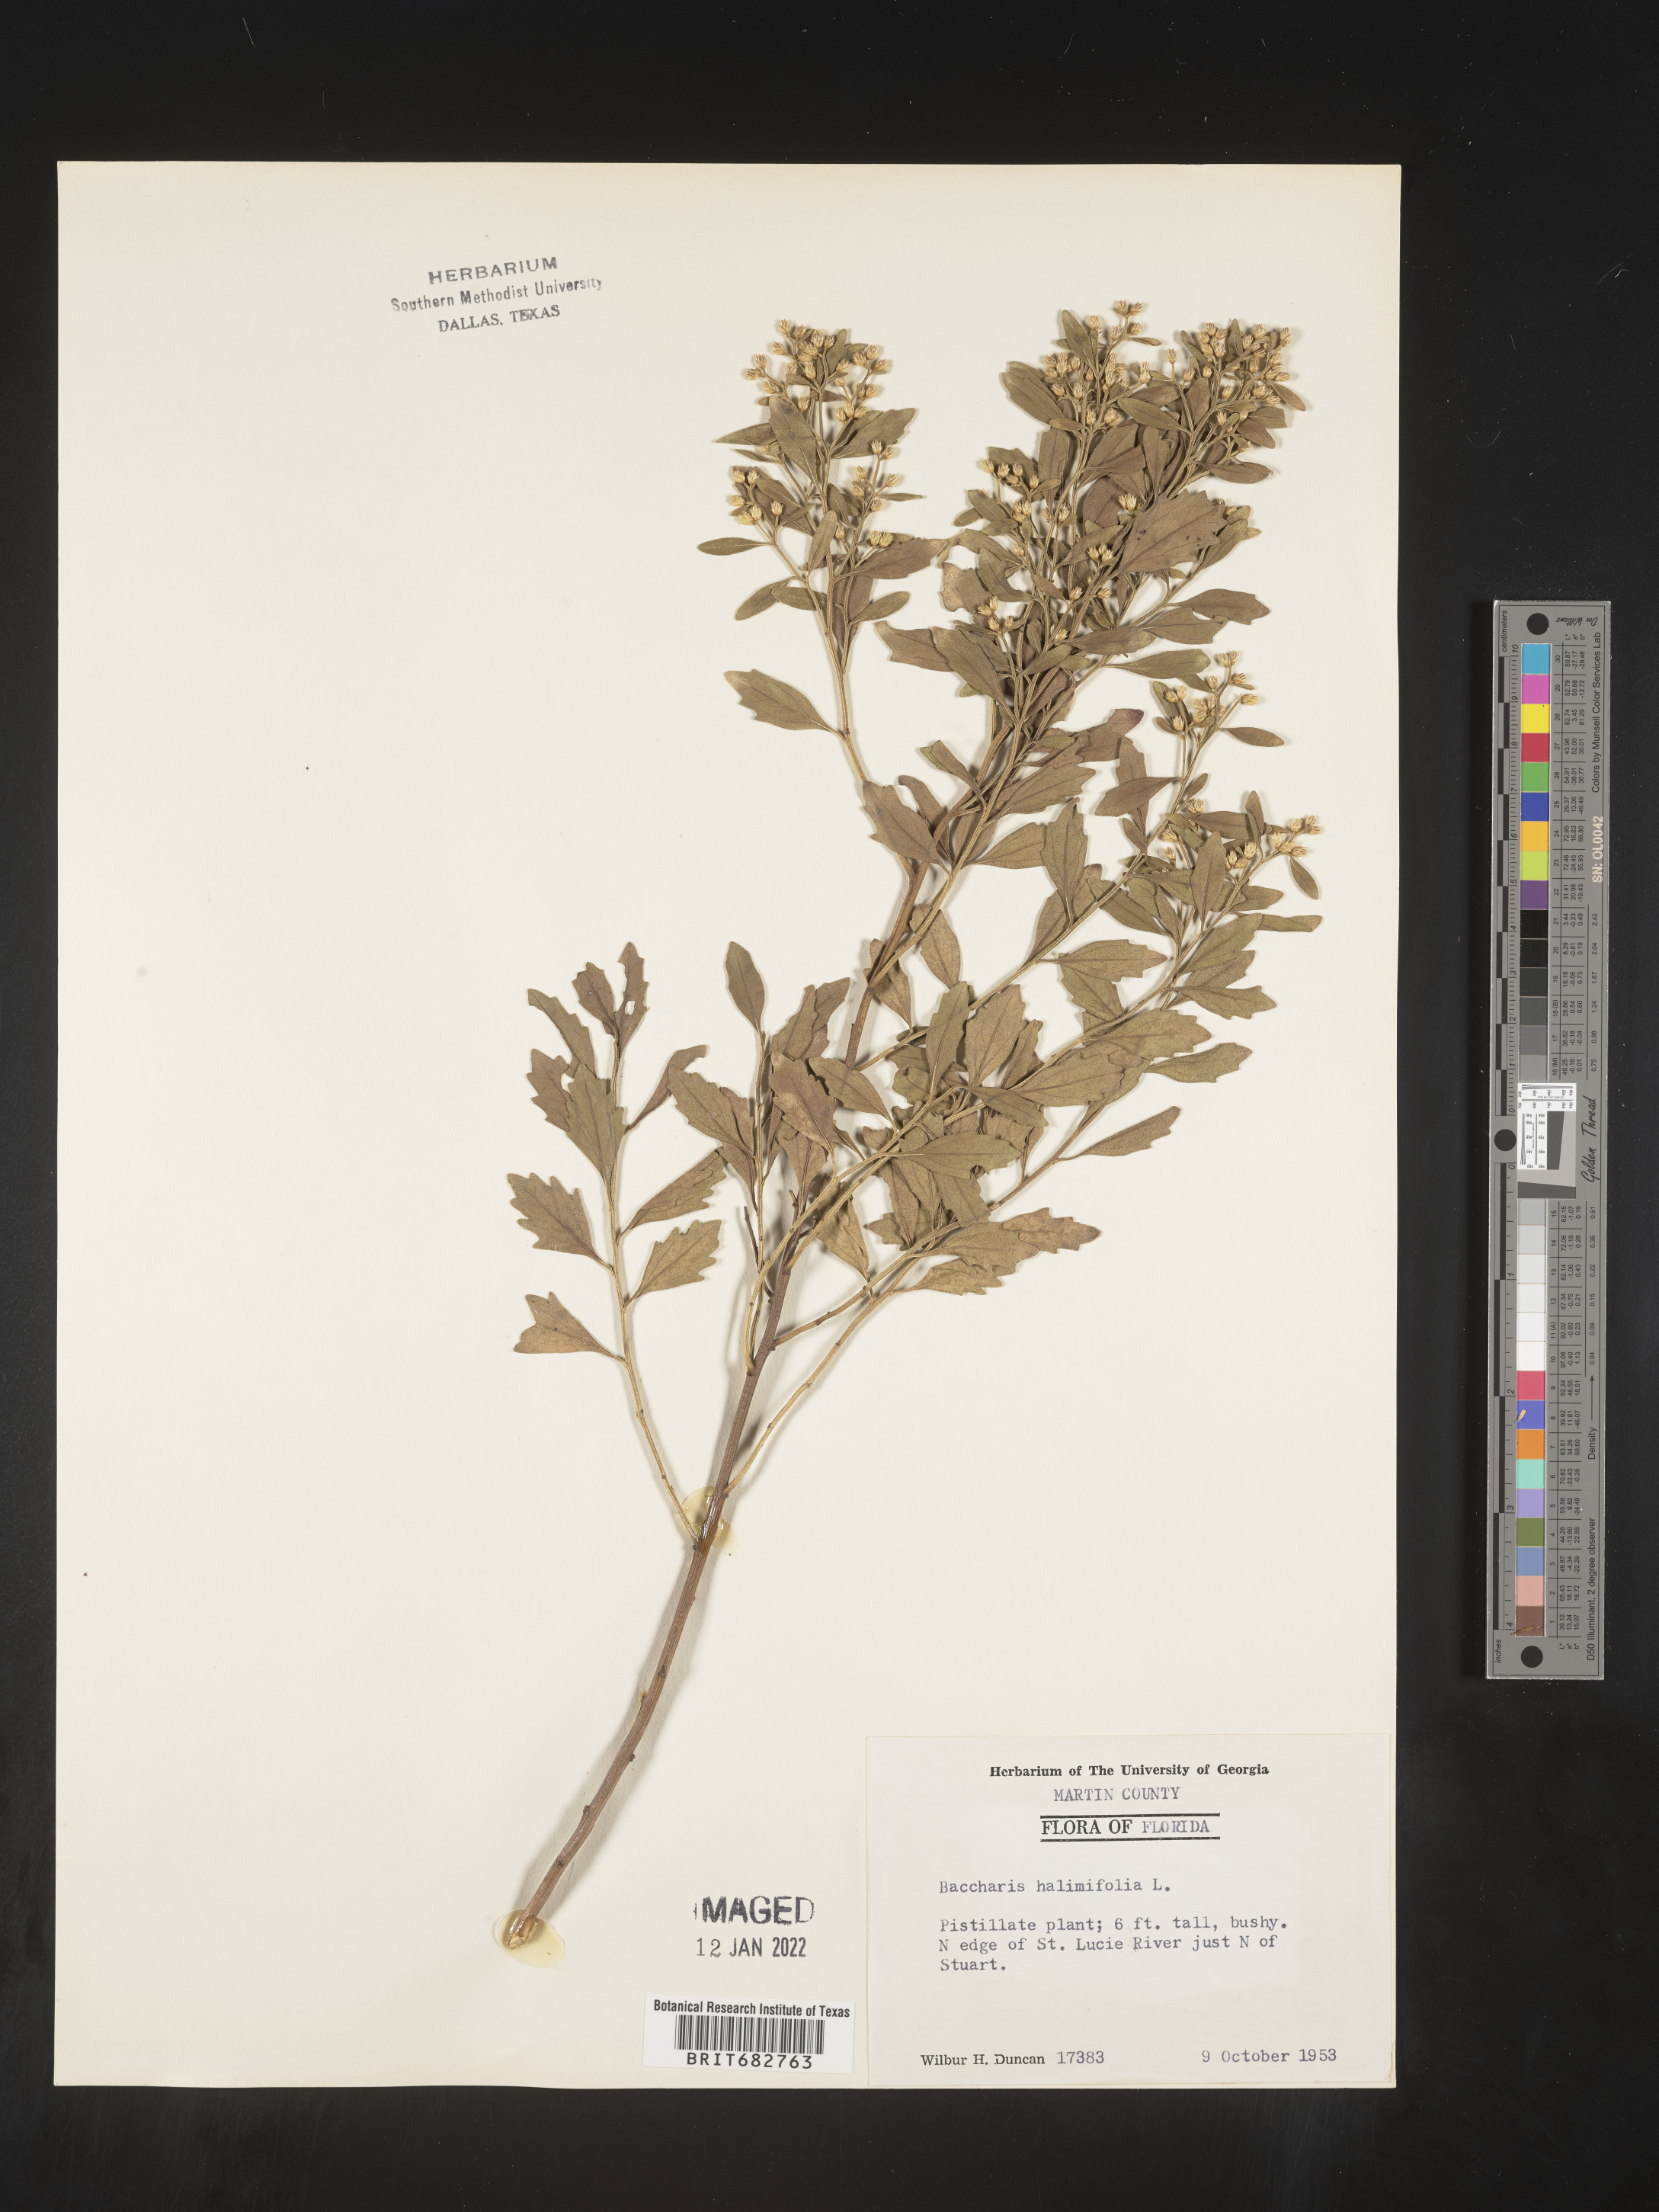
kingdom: Plantae
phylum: Tracheophyta
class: Magnoliopsida
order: Asterales
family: Asteraceae
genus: Nidorella
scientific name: Nidorella ivifolia
